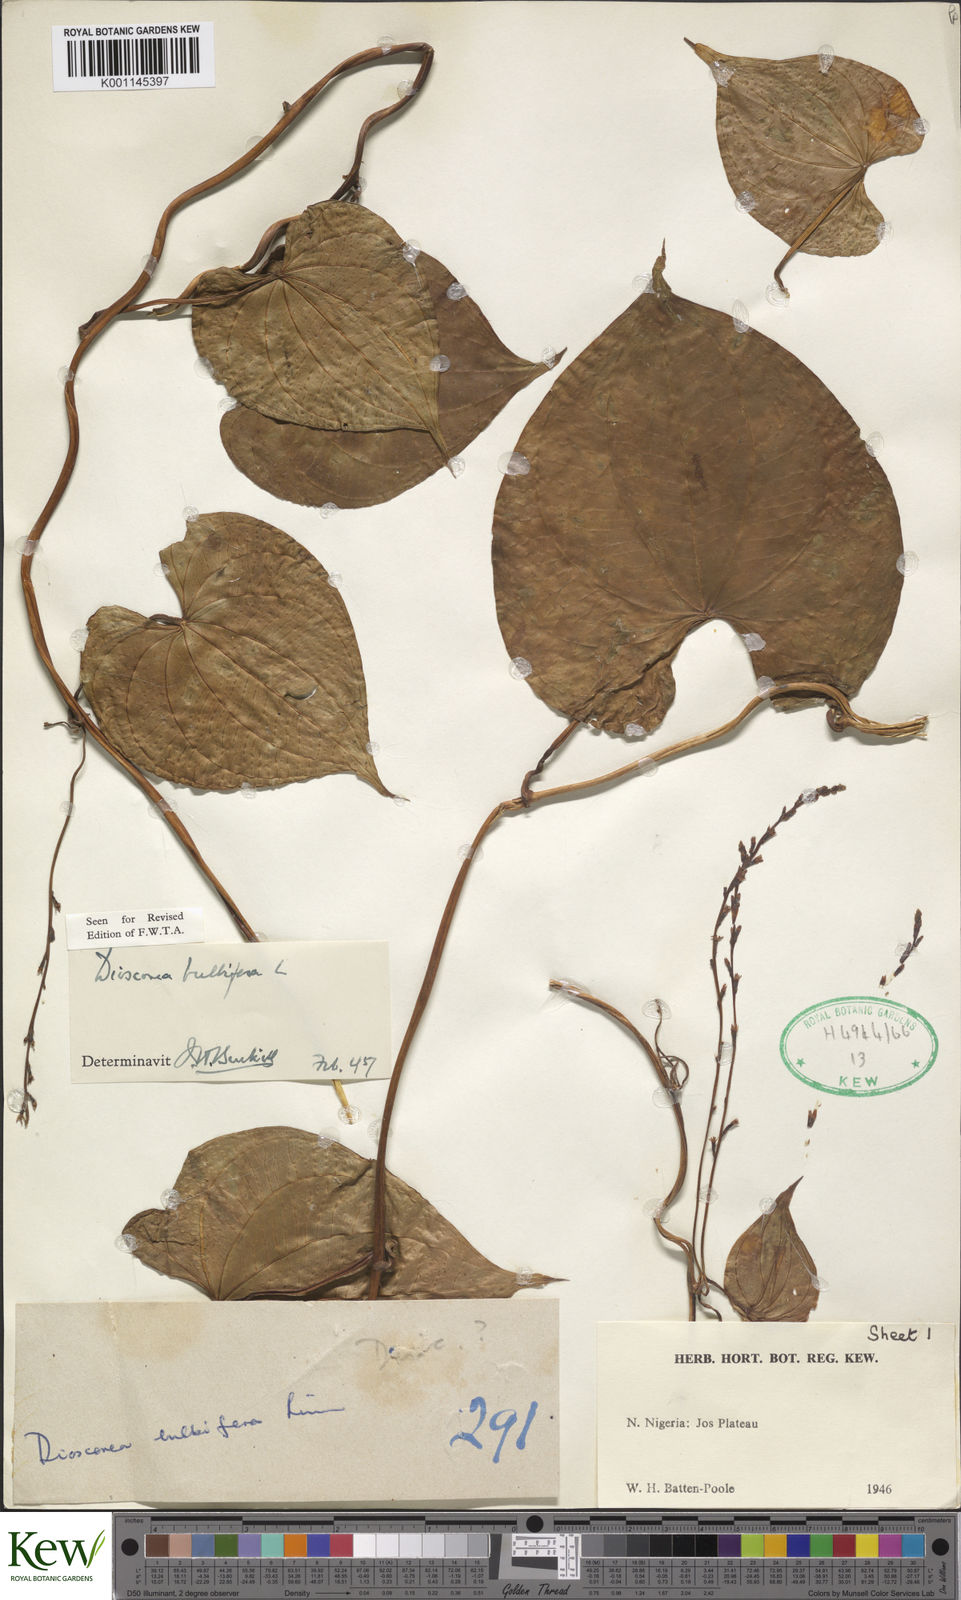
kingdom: Plantae
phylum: Tracheophyta
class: Liliopsida
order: Dioscoreales
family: Dioscoreaceae
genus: Dioscorea
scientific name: Dioscorea bulbifera
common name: Air yam
